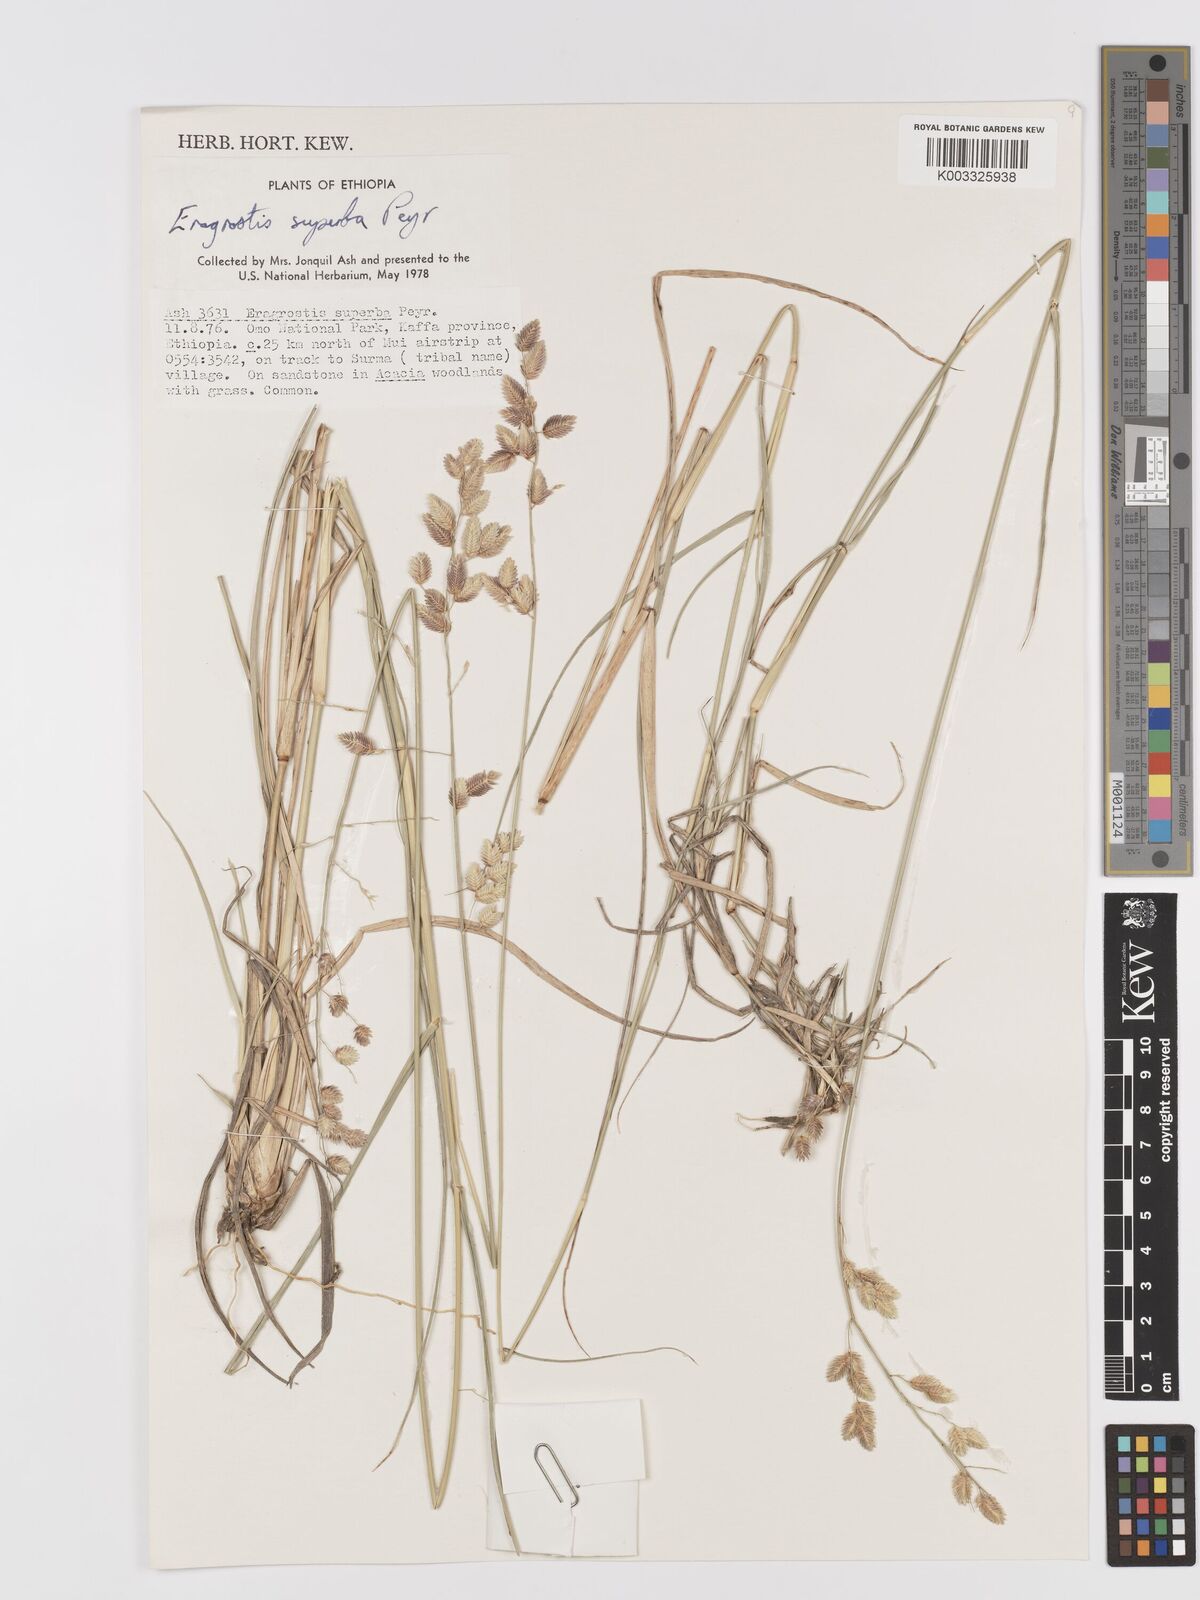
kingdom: Plantae
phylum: Tracheophyta
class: Liliopsida
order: Poales
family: Poaceae
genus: Eragrostis
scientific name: Eragrostis superba
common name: Wilman lovegrass
